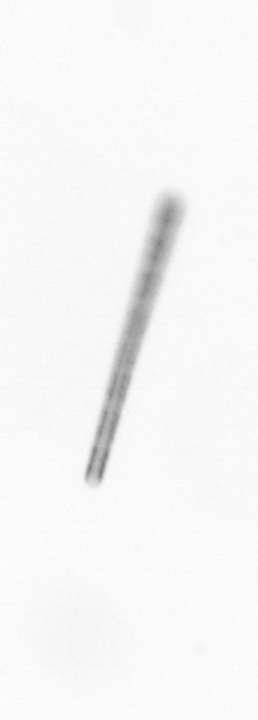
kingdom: Chromista
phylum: Ochrophyta
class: Bacillariophyceae
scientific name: Bacillariophyceae
